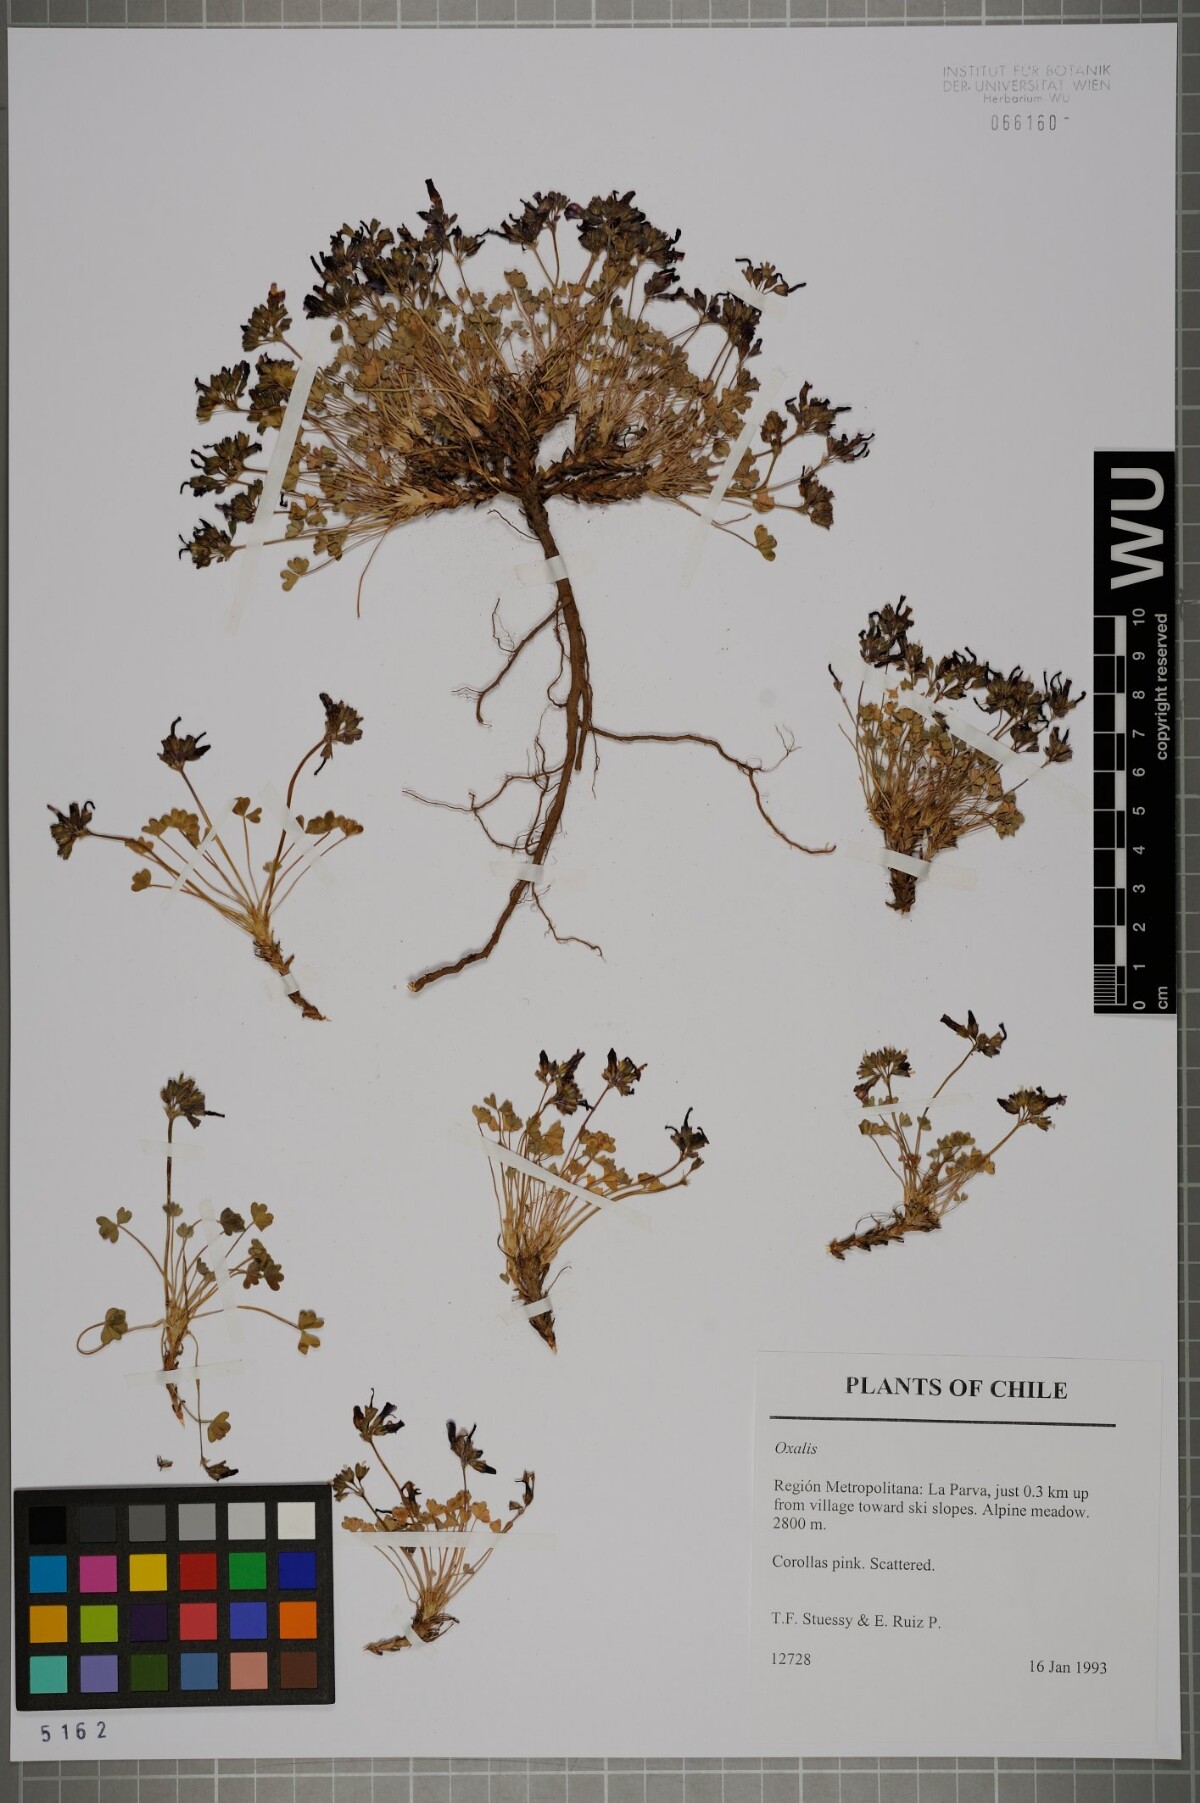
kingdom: Plantae
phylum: Tracheophyta
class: Magnoliopsida
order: Oxalidales
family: Oxalidaceae
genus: Oxalis
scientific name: Oxalis
